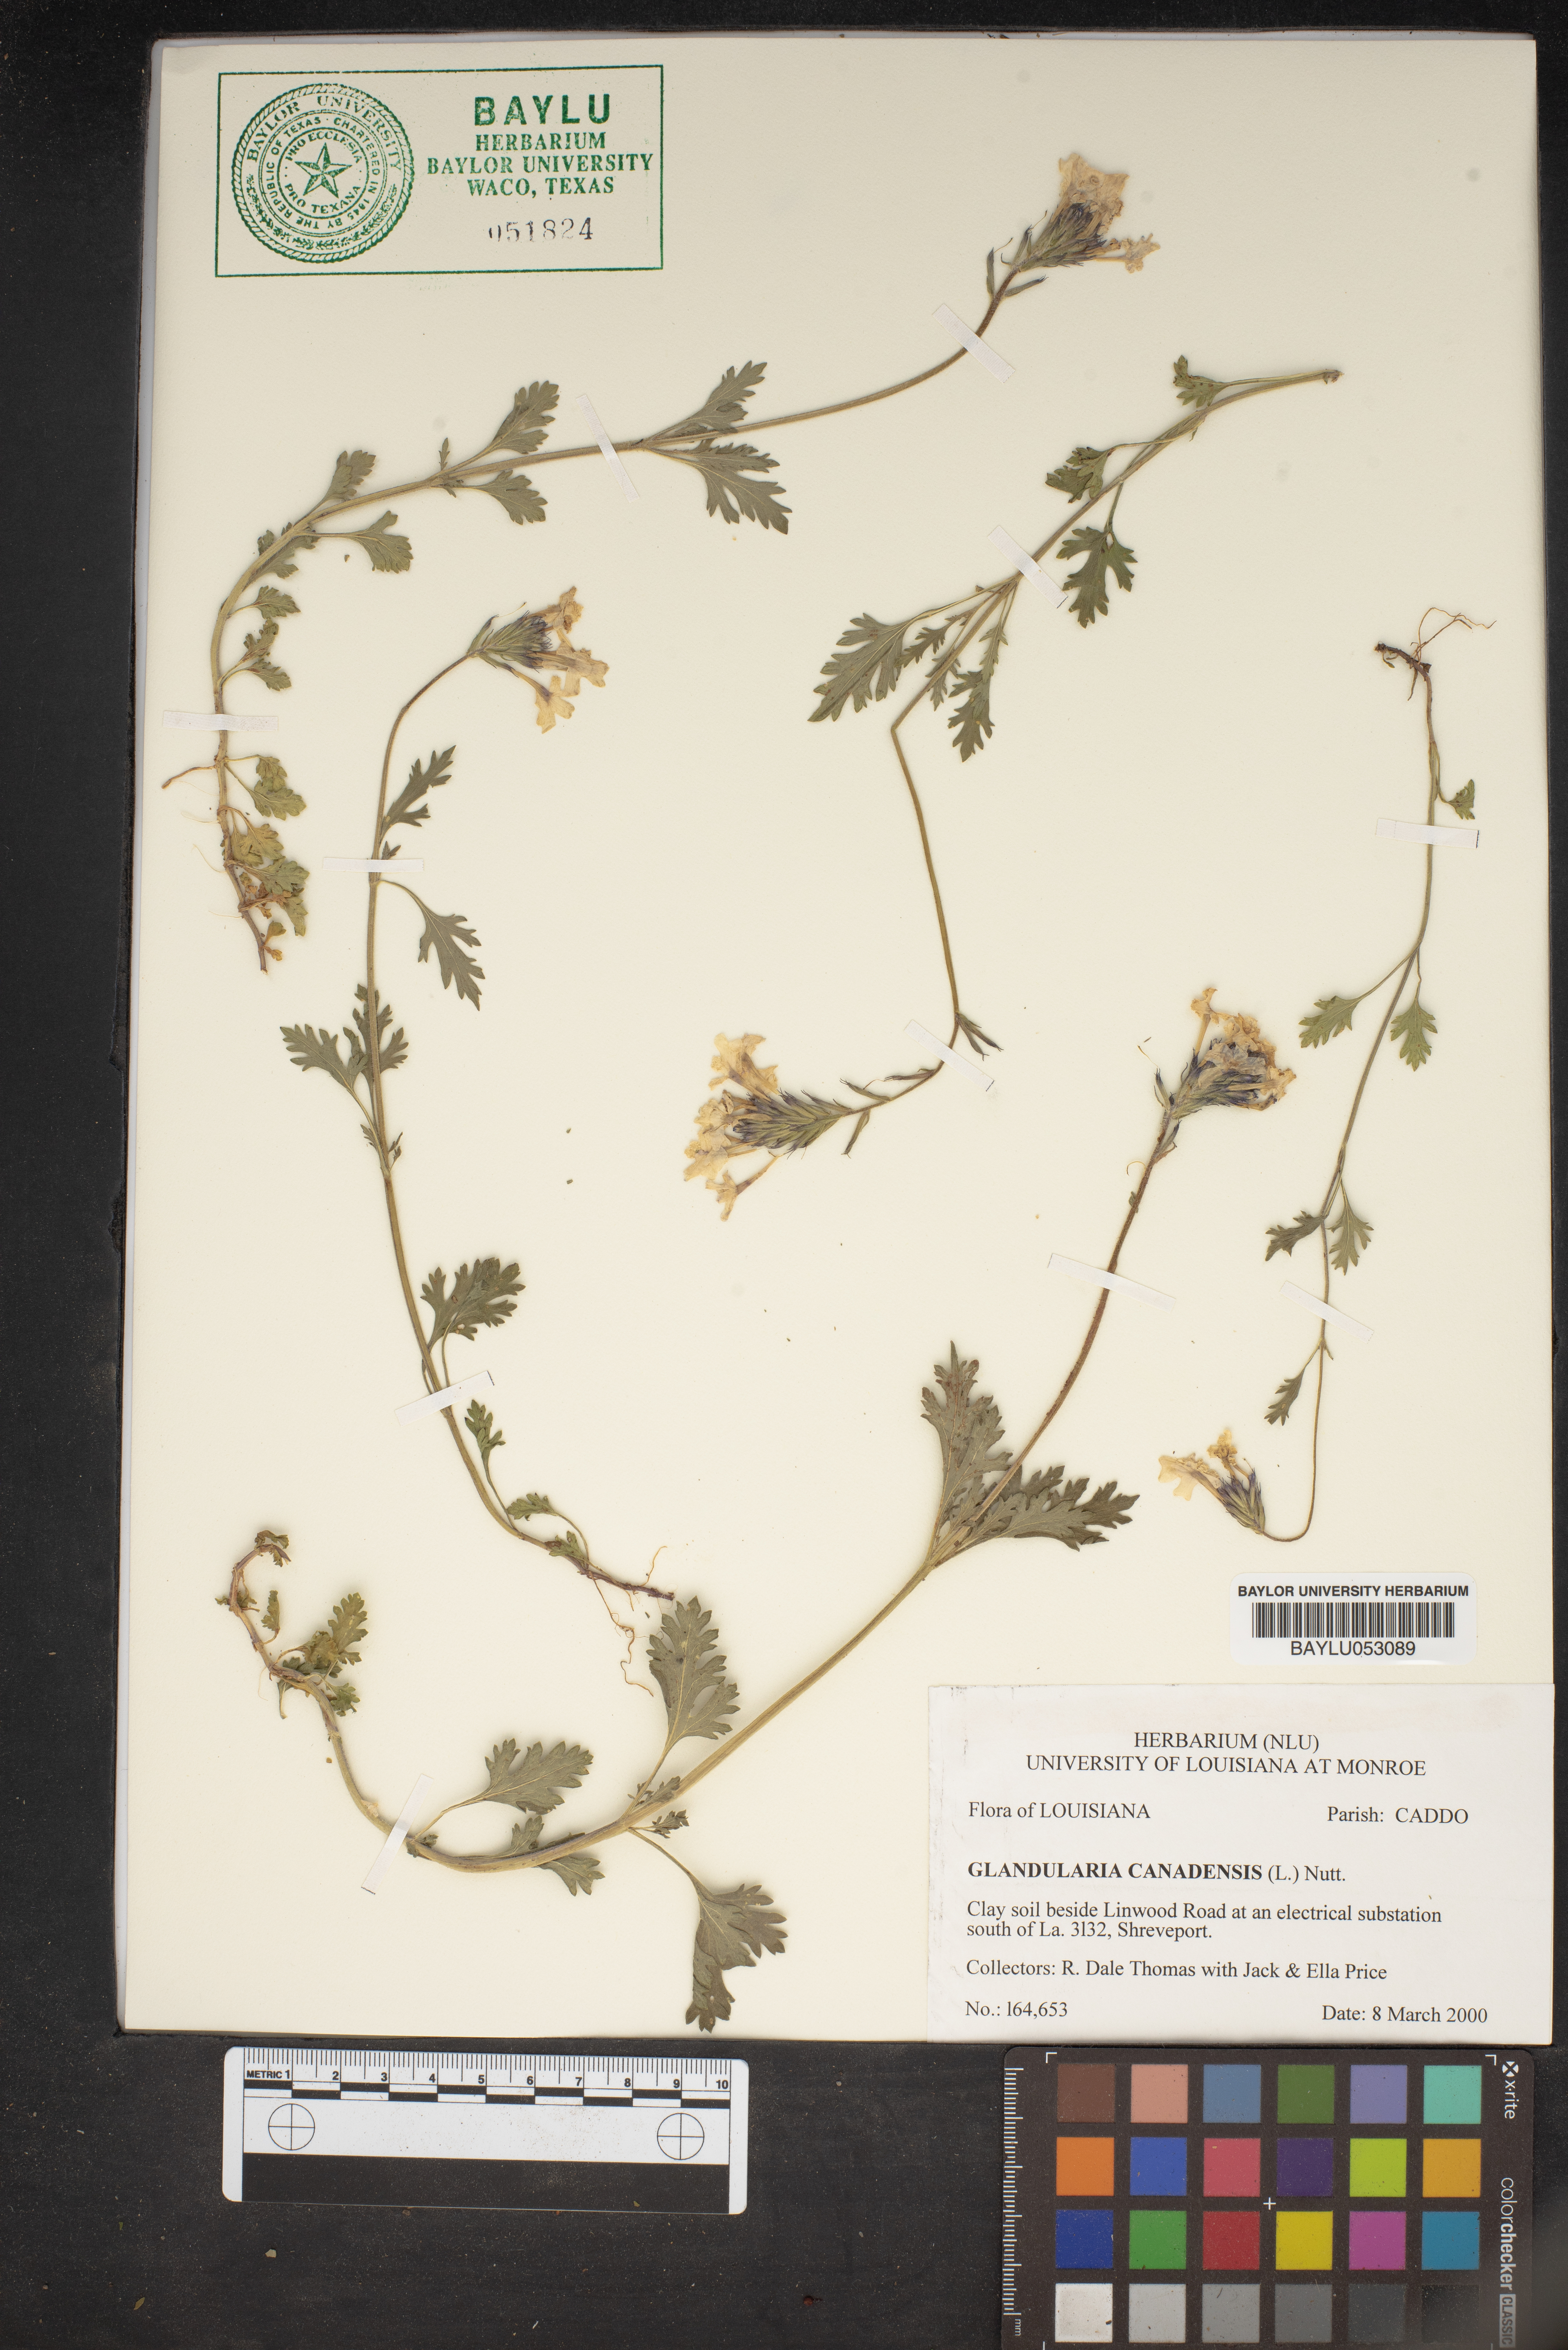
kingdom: Plantae
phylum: Tracheophyta
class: Magnoliopsida
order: Lamiales
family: Verbenaceae
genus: Verbena
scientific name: Verbena canadensis
